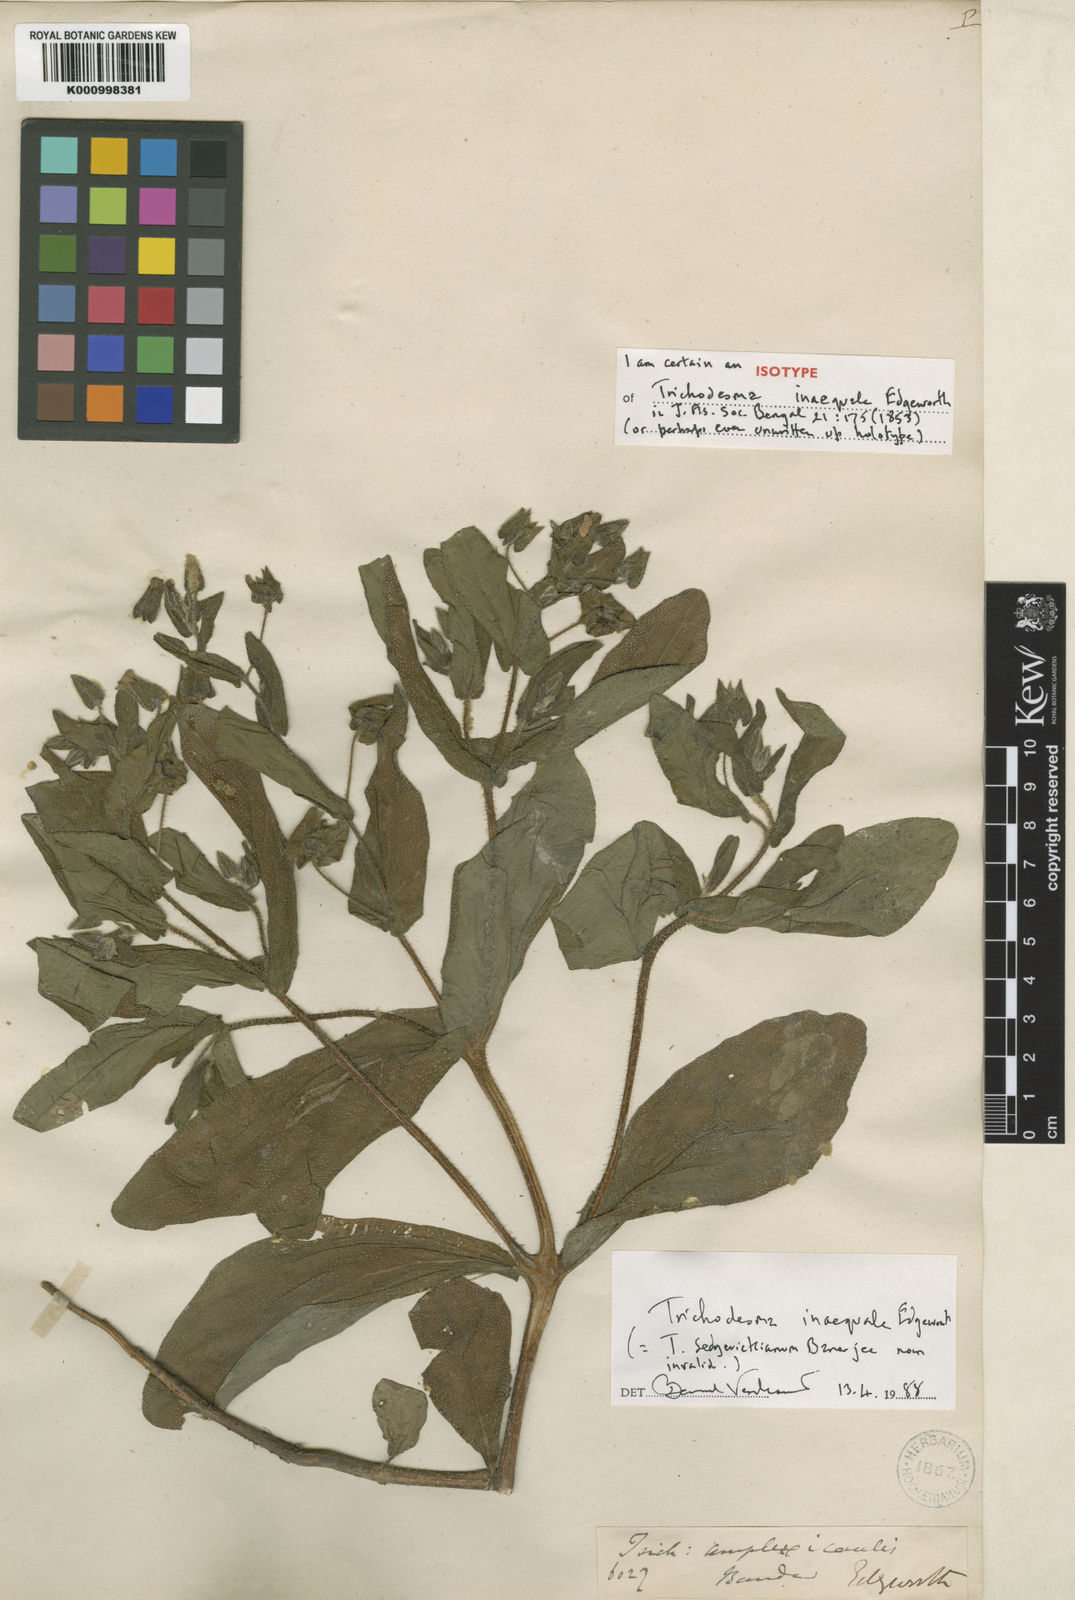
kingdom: Plantae
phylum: Tracheophyta
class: Magnoliopsida
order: Boraginales
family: Boraginaceae
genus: Trichodesma
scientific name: Trichodesma inaequale
